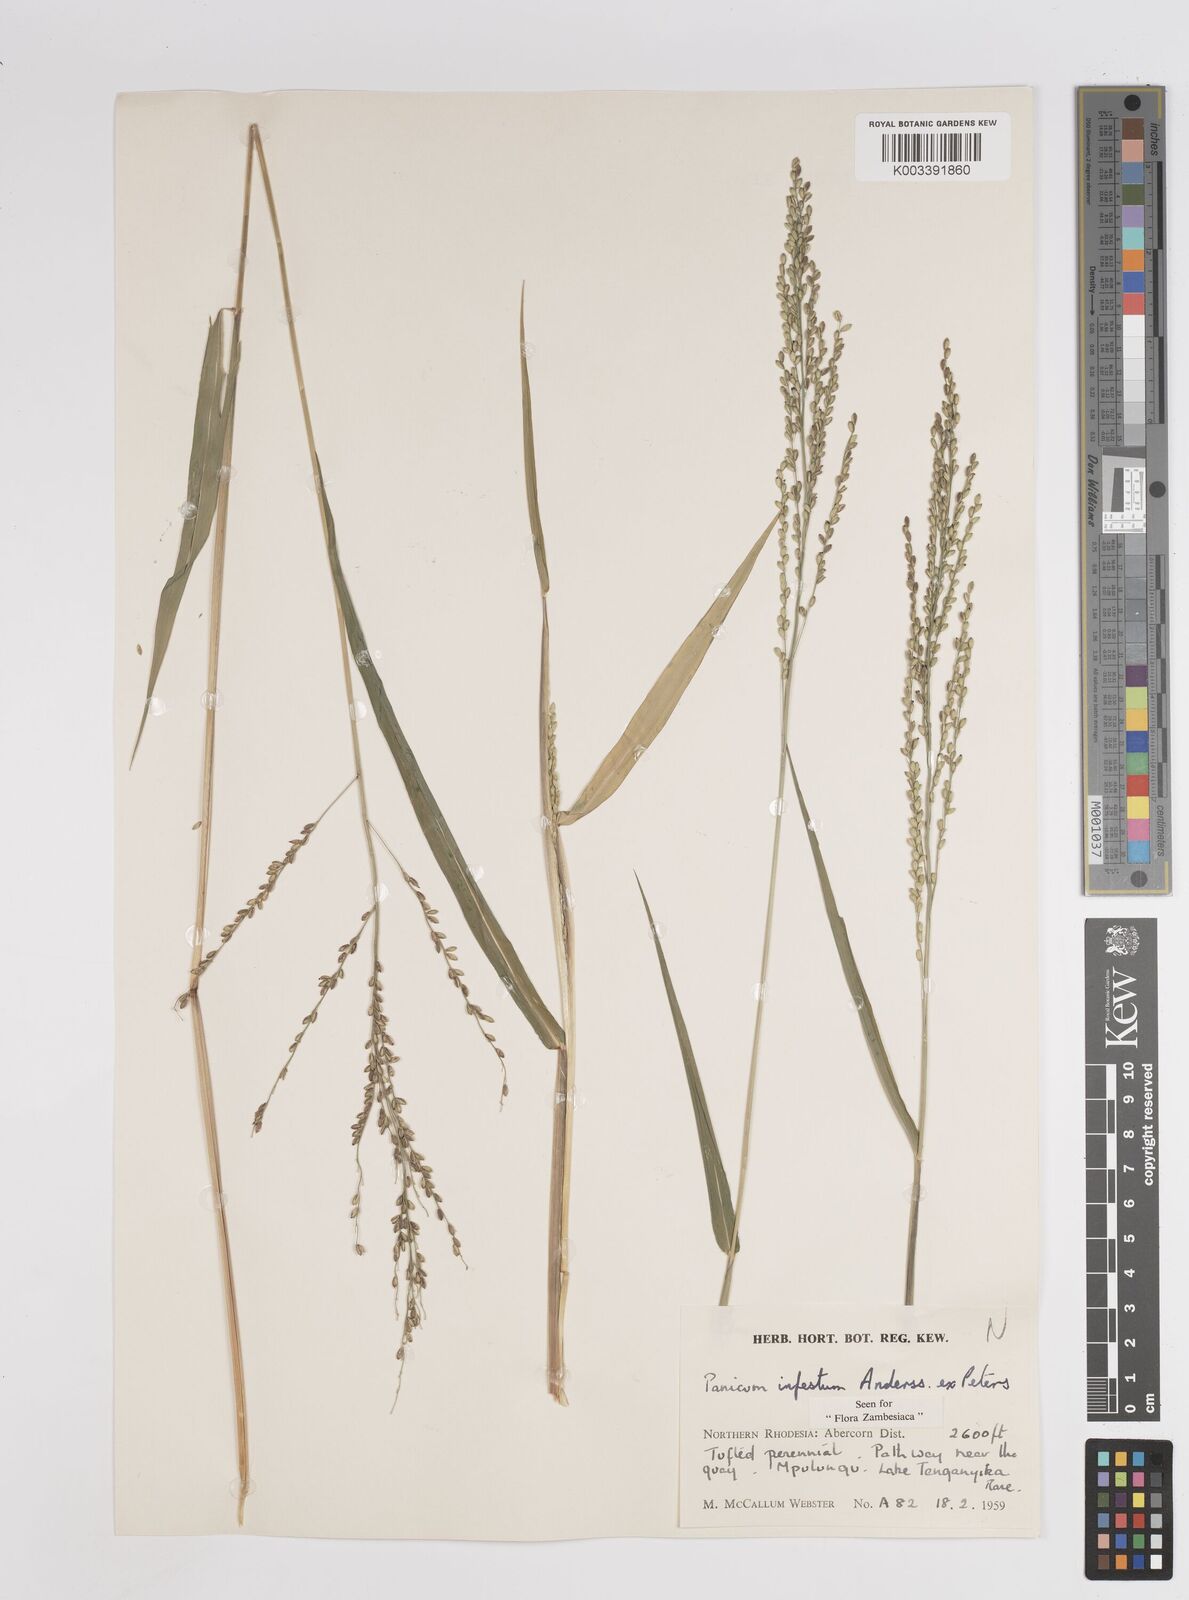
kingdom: Plantae
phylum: Tracheophyta
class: Liliopsida
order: Poales
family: Poaceae
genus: Megathyrsus
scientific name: Megathyrsus infestus
